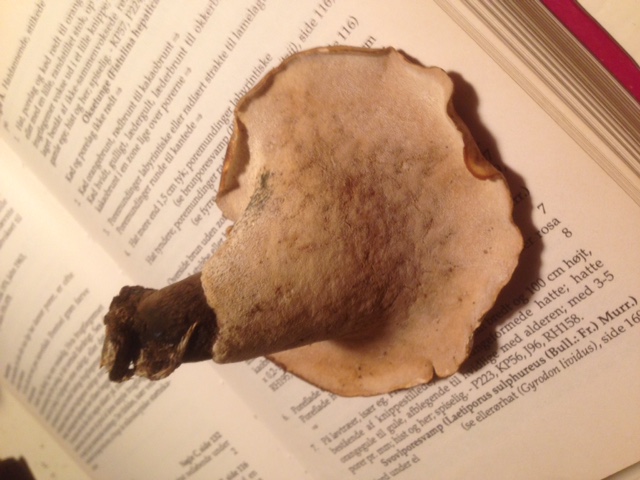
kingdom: Fungi
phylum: Basidiomycota
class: Agaricomycetes
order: Polyporales
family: Polyporaceae
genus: Picipes
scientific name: Picipes badius
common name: kastaniebrun stilkporesvamp
